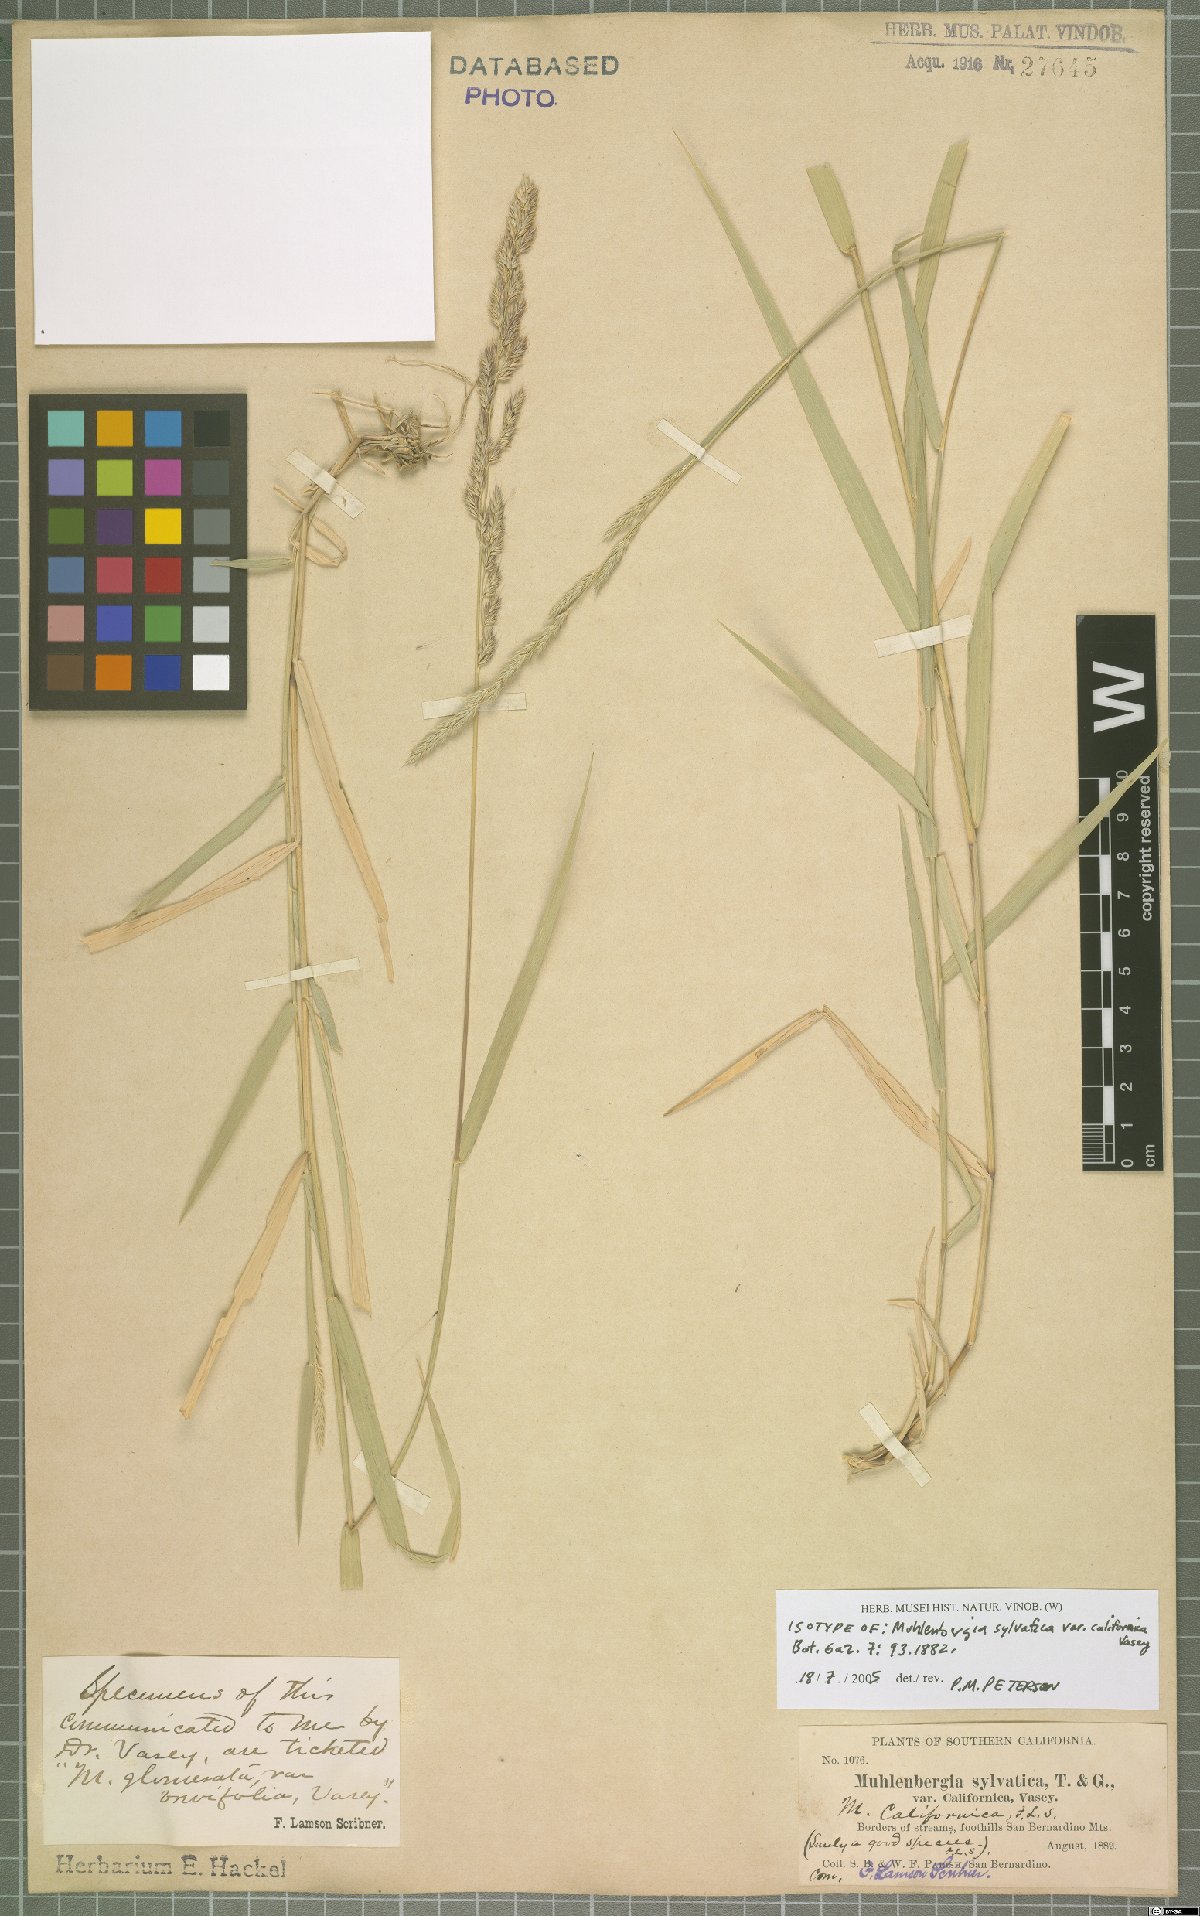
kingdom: Plantae
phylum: Tracheophyta
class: Liliopsida
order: Poales
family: Poaceae
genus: Muhlenbergia
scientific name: Muhlenbergia californica
